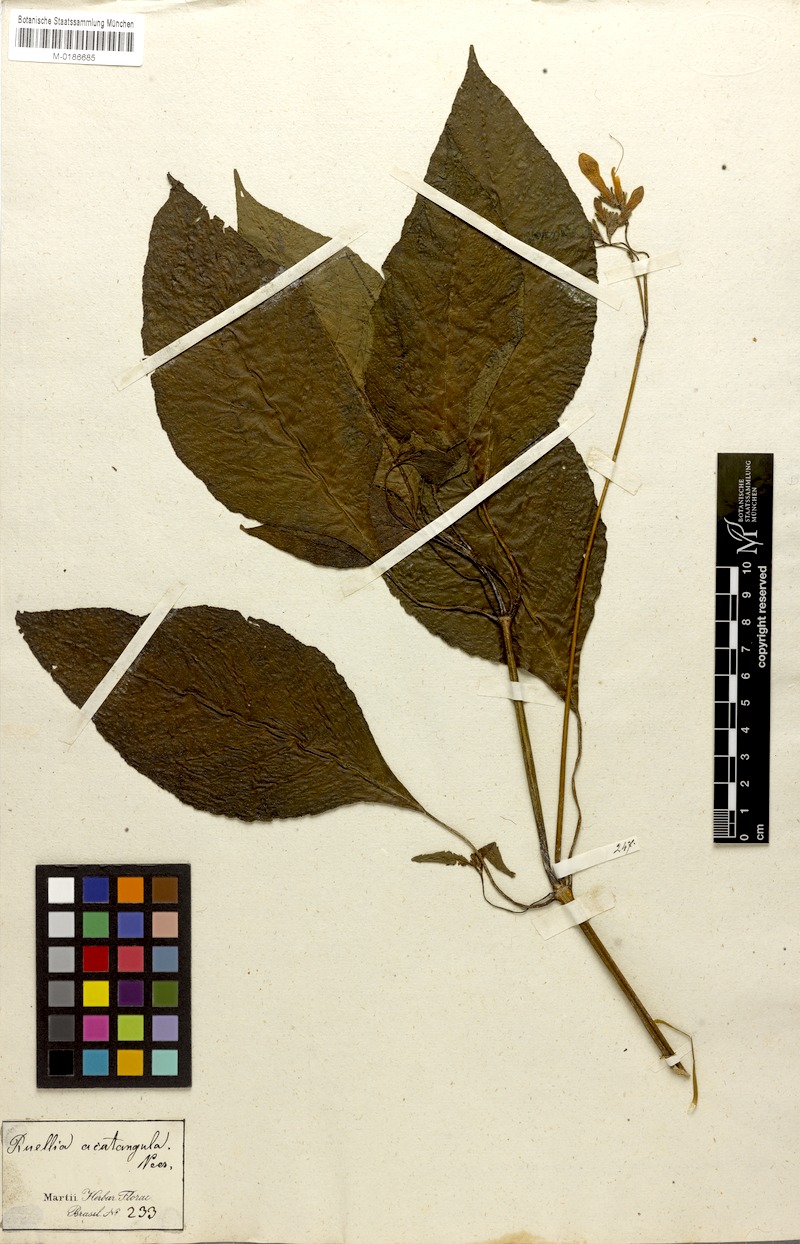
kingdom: Plantae
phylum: Tracheophyta
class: Magnoliopsida
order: Lamiales
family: Acanthaceae
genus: Ruellia
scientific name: Ruellia acutangula
